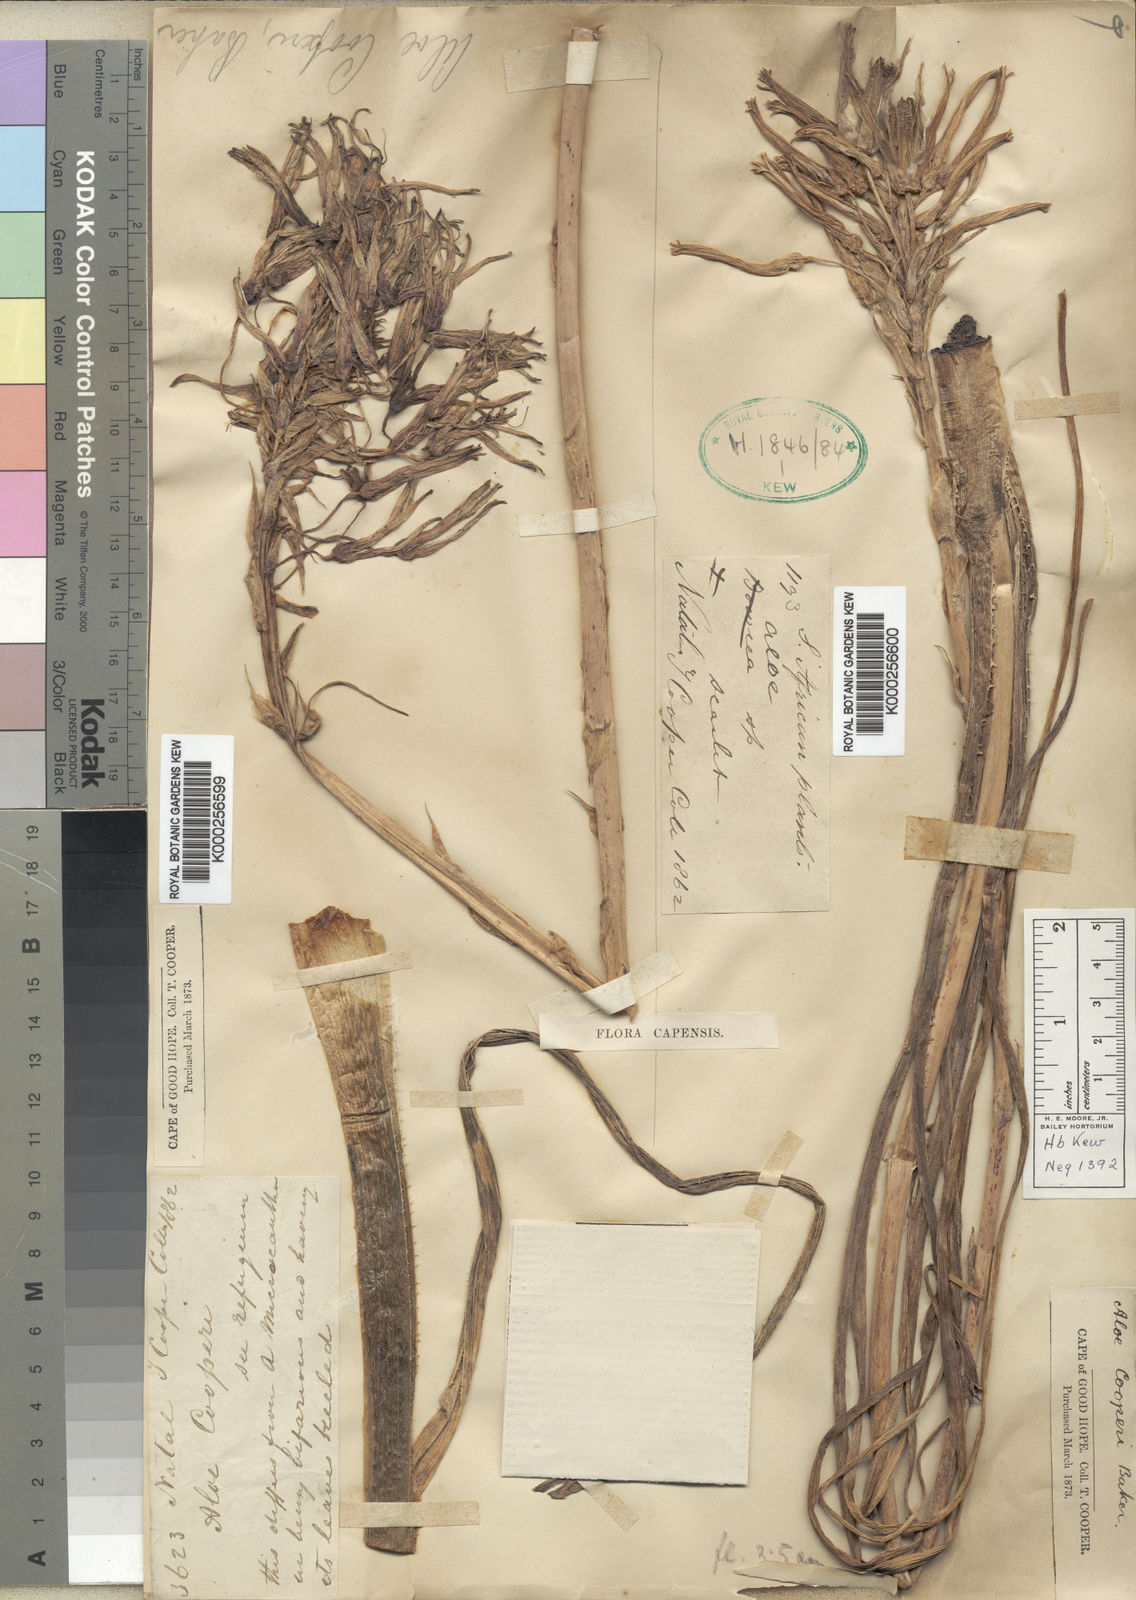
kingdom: Plantae
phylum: Tracheophyta
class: Liliopsida
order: Asparagales
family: Asphodelaceae
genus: Aloe
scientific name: Aloe cooperi
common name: Cooper's aloe
